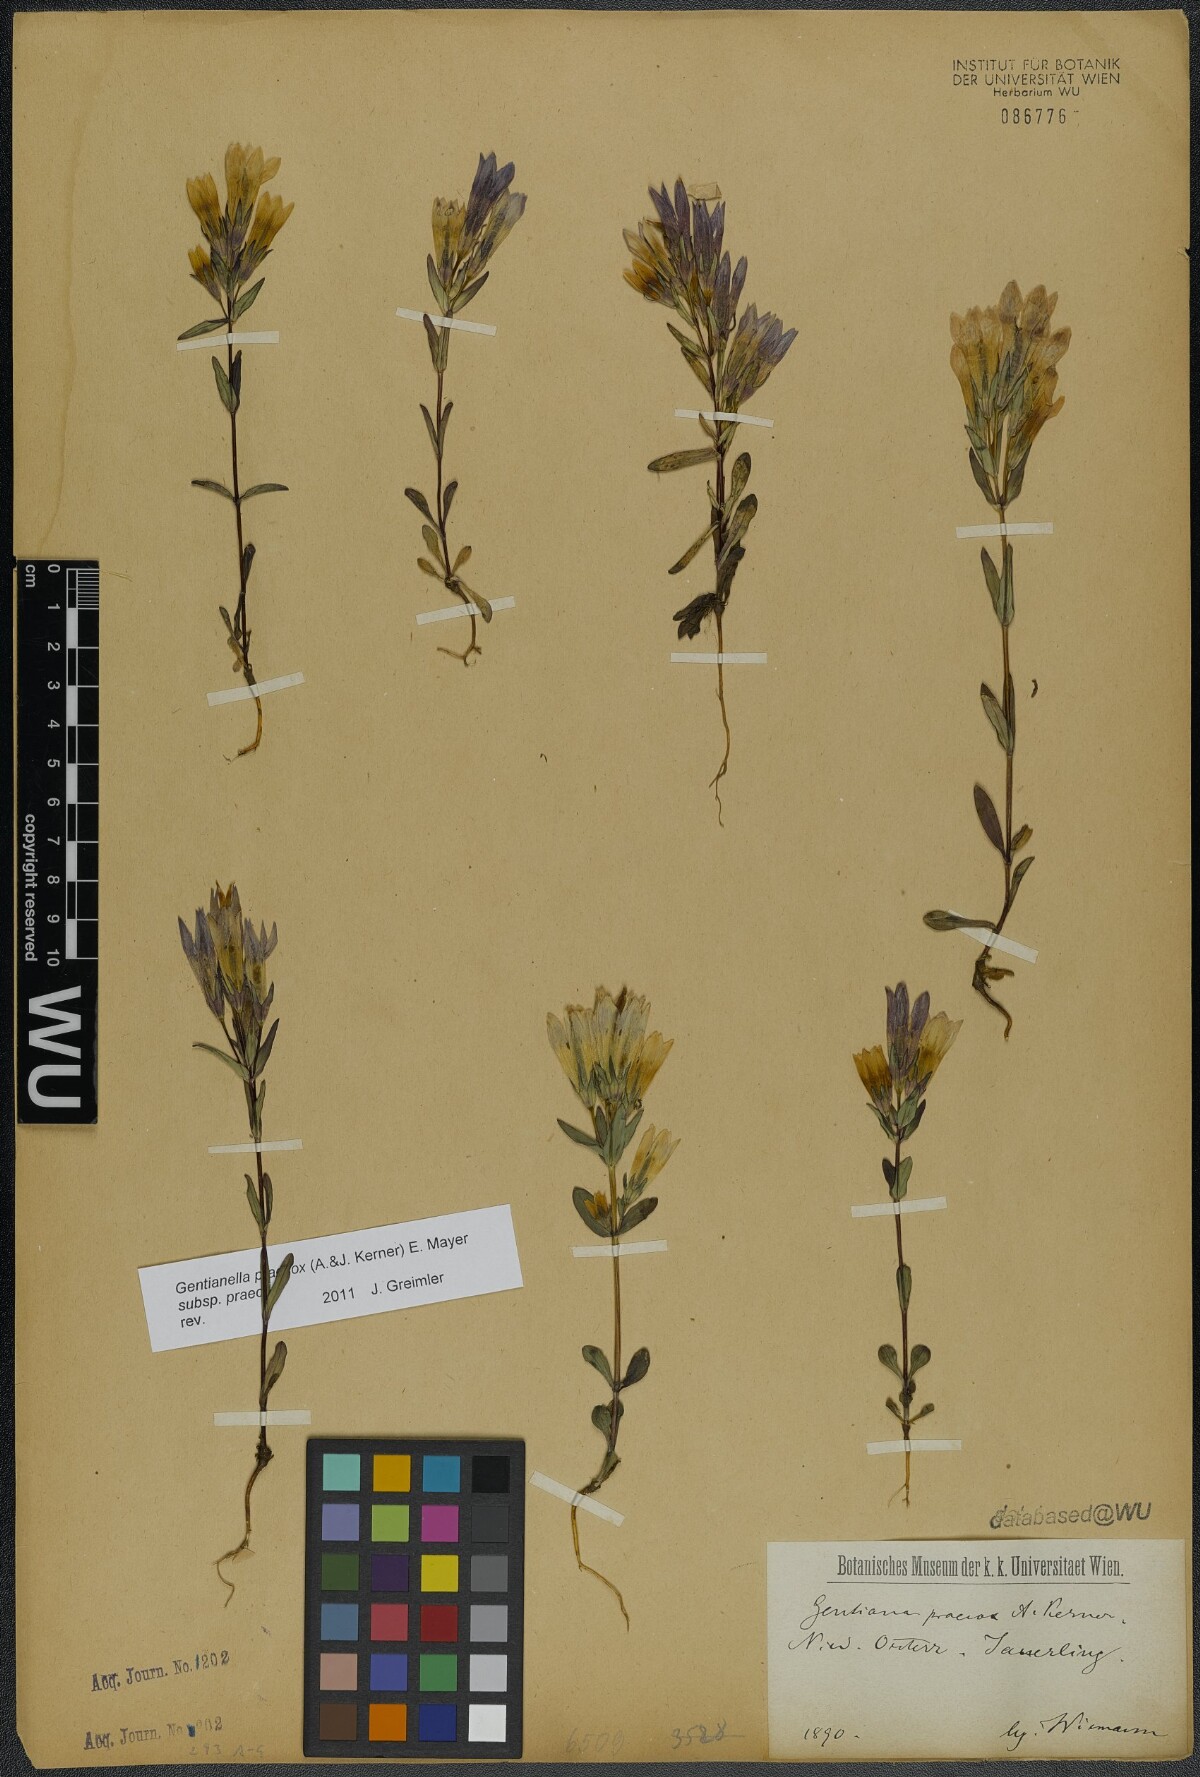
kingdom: Plantae
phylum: Tracheophyta
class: Magnoliopsida
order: Gentianales
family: Gentianaceae
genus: Gentianella
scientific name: Gentianella praecox
